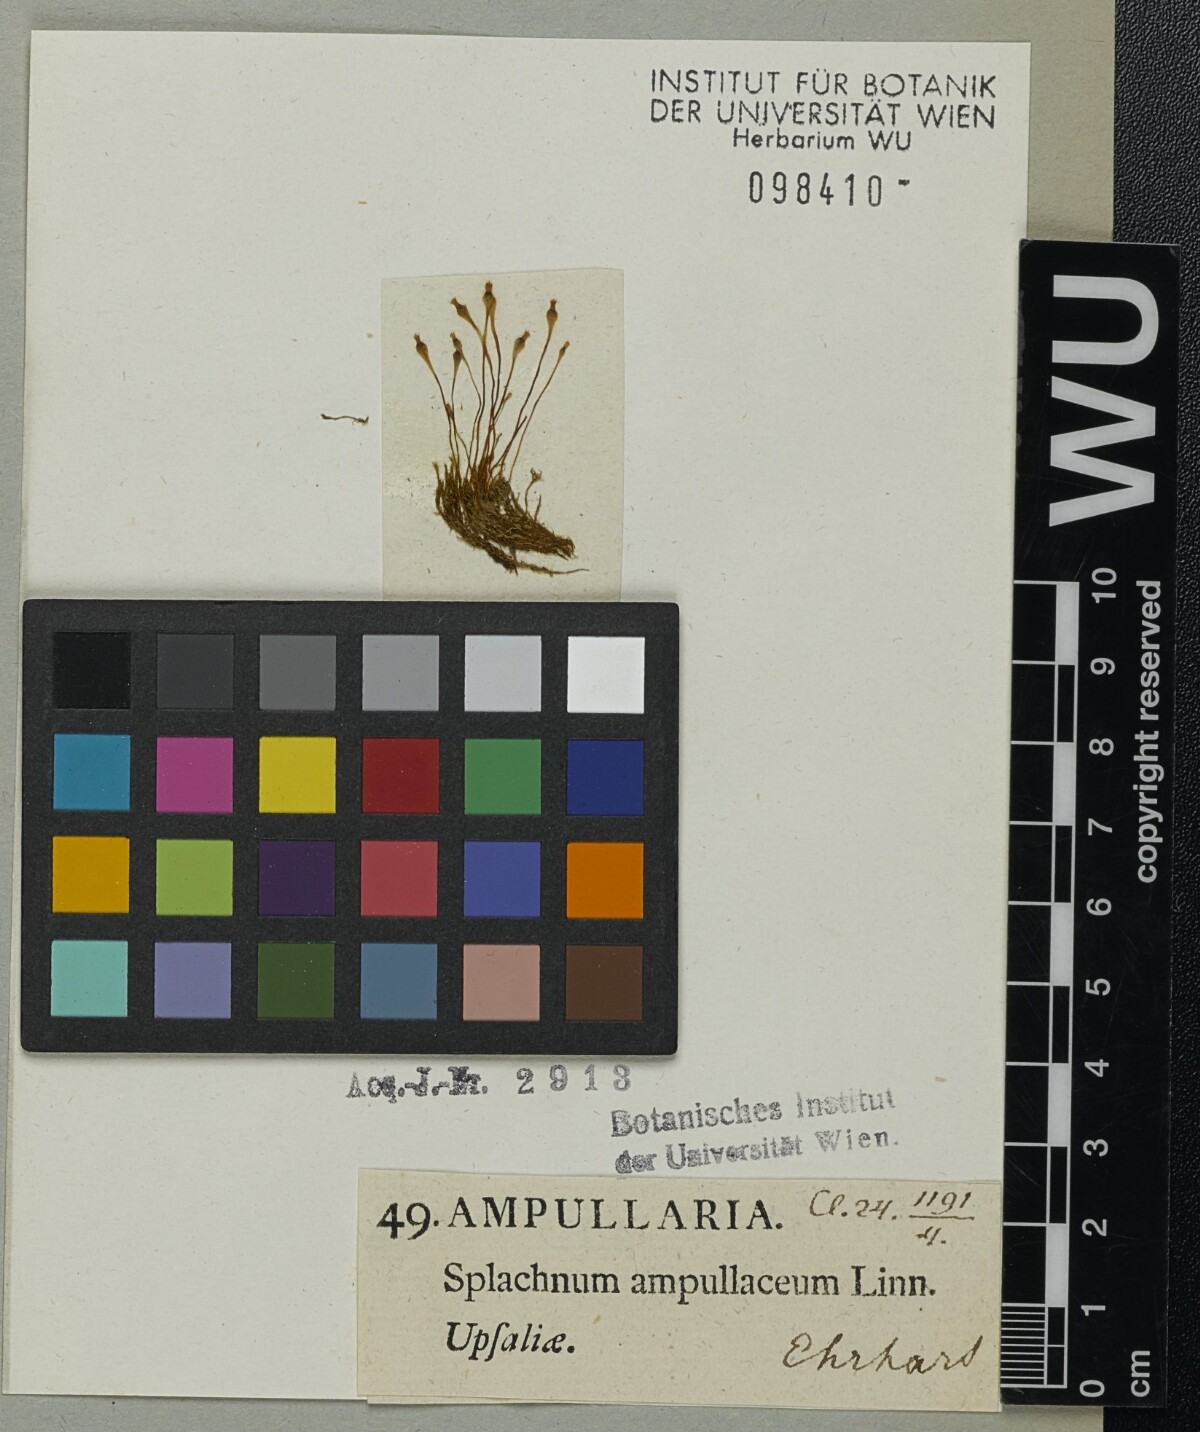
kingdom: Plantae
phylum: Bryophyta
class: Bryopsida
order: Splachnales
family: Splachnaceae
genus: Splachnum
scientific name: Splachnum ampullaceum
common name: Cruet dung moss
